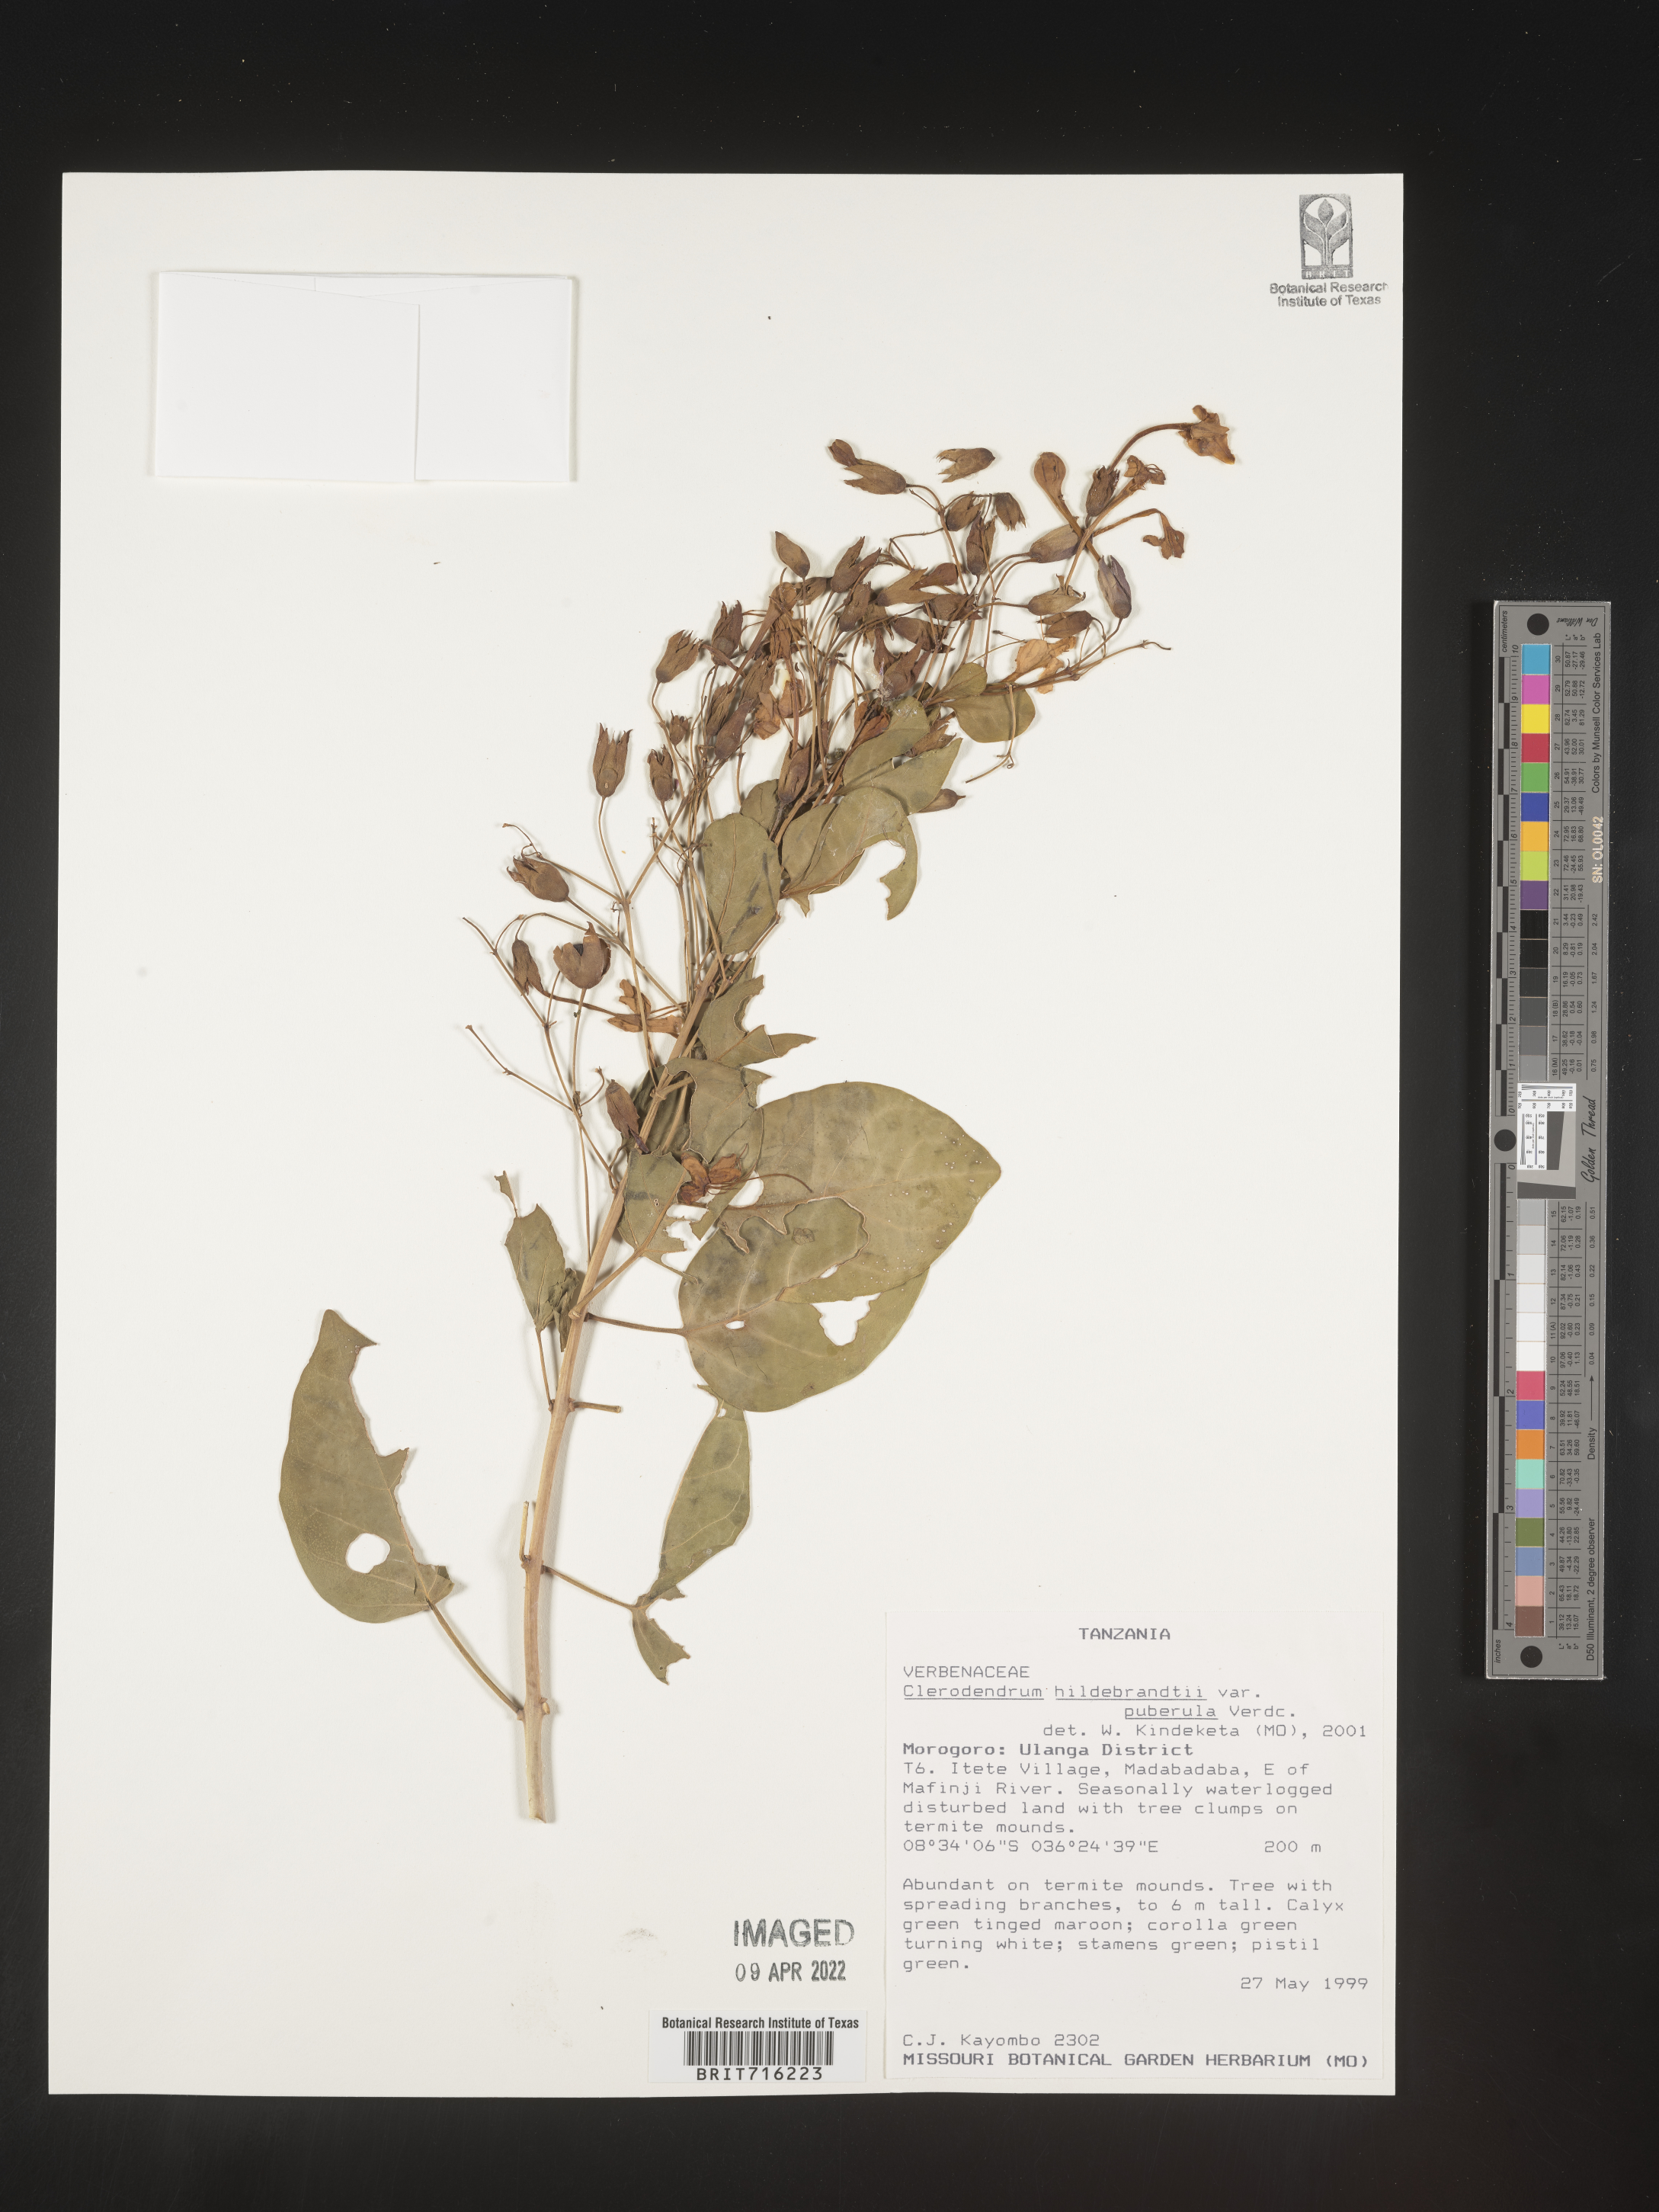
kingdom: Plantae
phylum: Tracheophyta
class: Magnoliopsida
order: Lamiales
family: Lamiaceae
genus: Clerodendrum
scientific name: Clerodendrum
